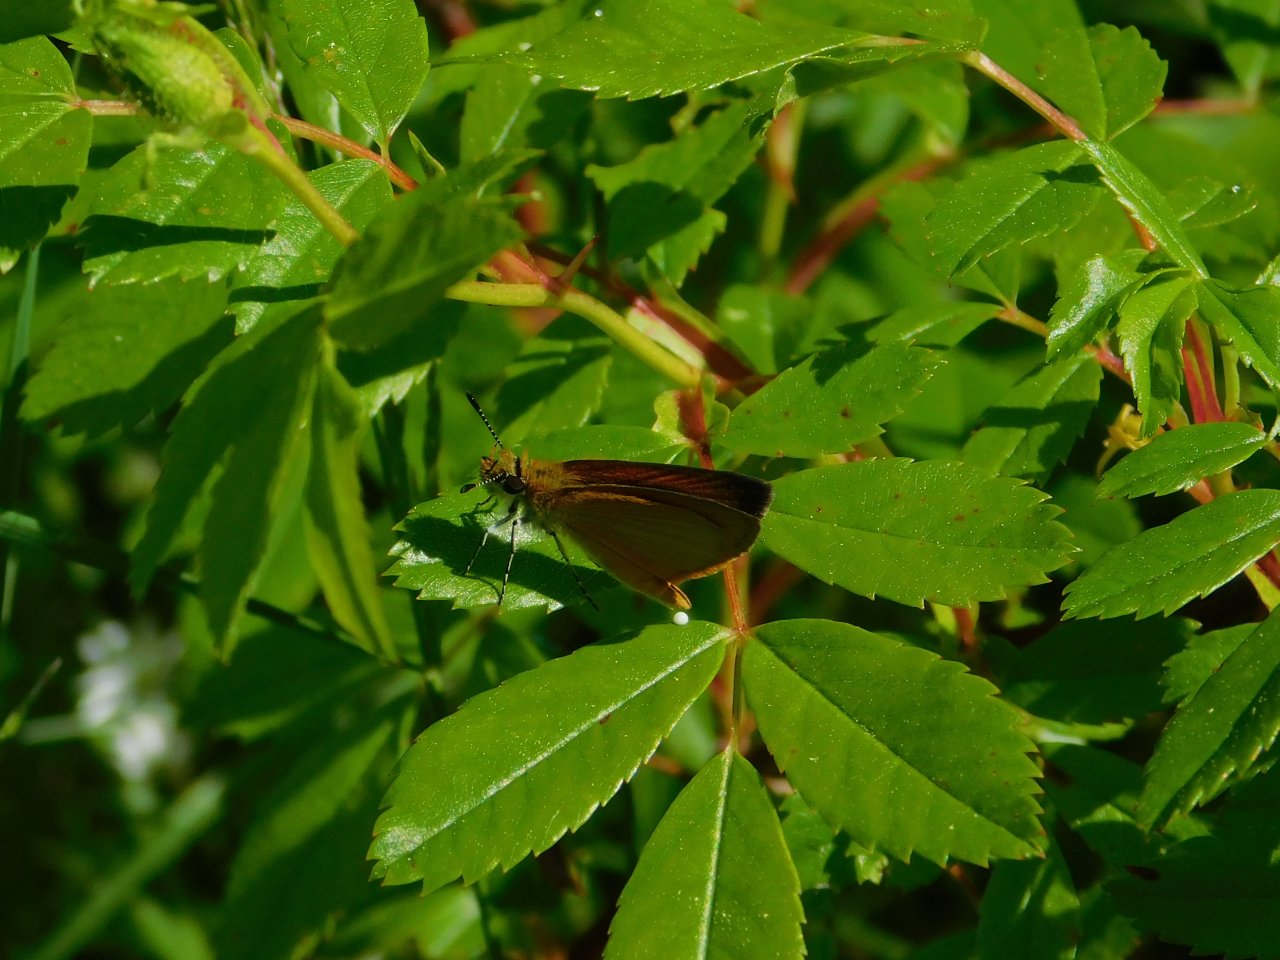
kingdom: Animalia
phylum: Arthropoda
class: Insecta
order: Lepidoptera
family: Hesperiidae
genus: Ancyloxypha
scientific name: Ancyloxypha numitor
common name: Least Skipper
